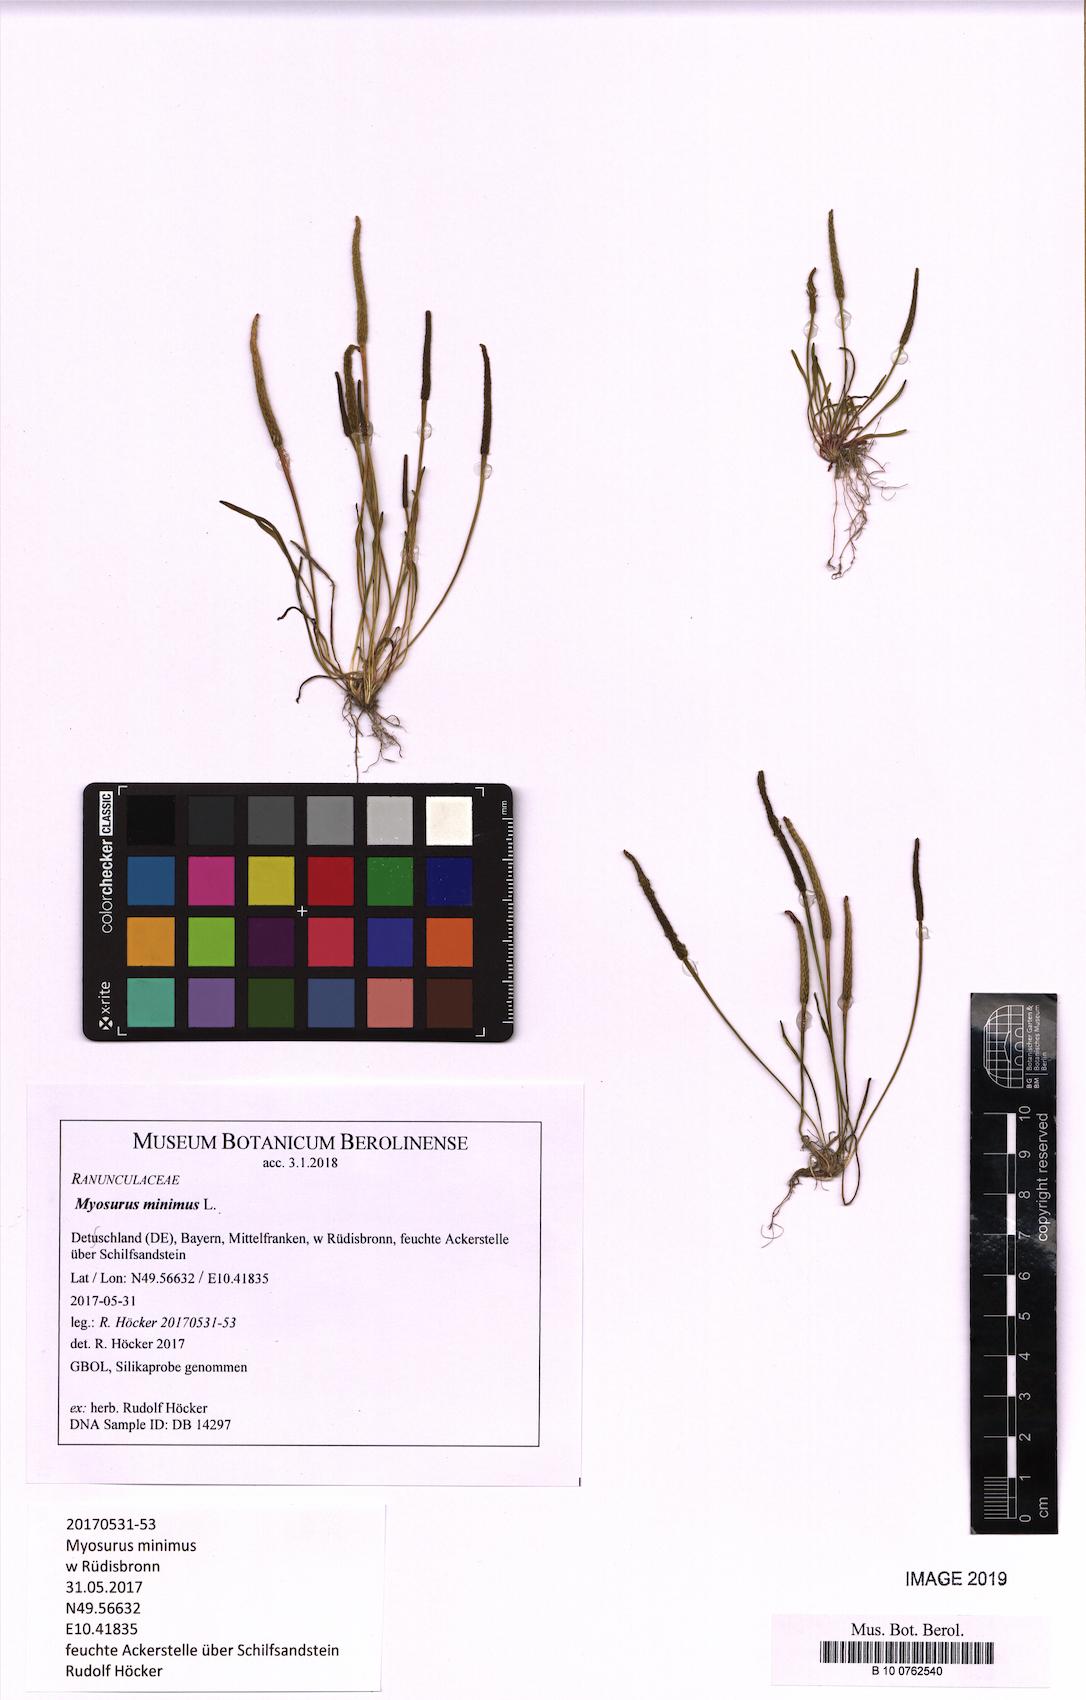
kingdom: Plantae
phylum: Tracheophyta
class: Magnoliopsida
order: Ranunculales
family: Ranunculaceae
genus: Myosurus
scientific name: Myosurus minimus
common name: Mousetail
